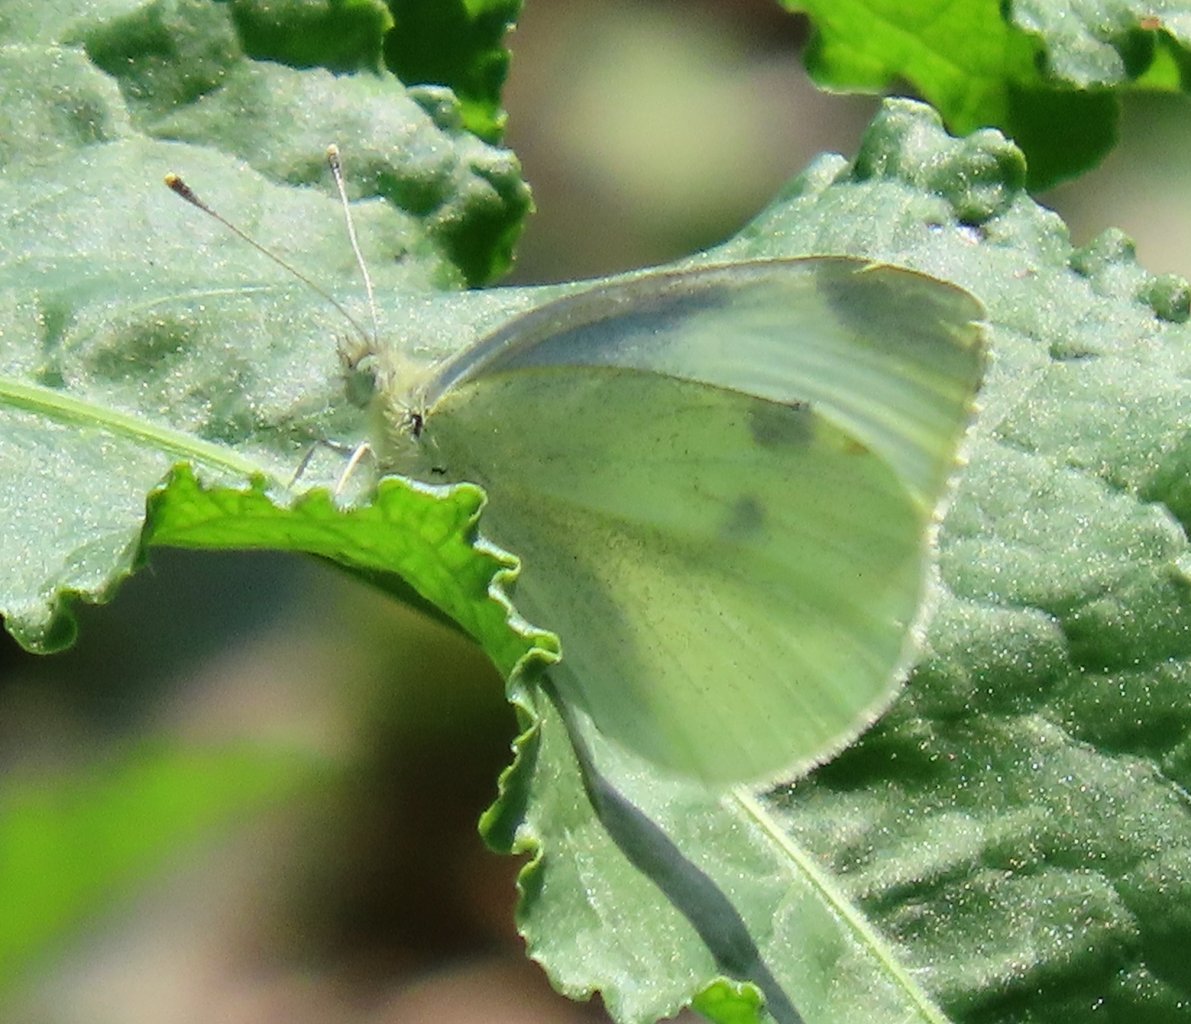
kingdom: Animalia
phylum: Arthropoda
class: Insecta
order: Lepidoptera
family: Pieridae
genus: Pieris
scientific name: Pieris rapae
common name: Cabbage White
